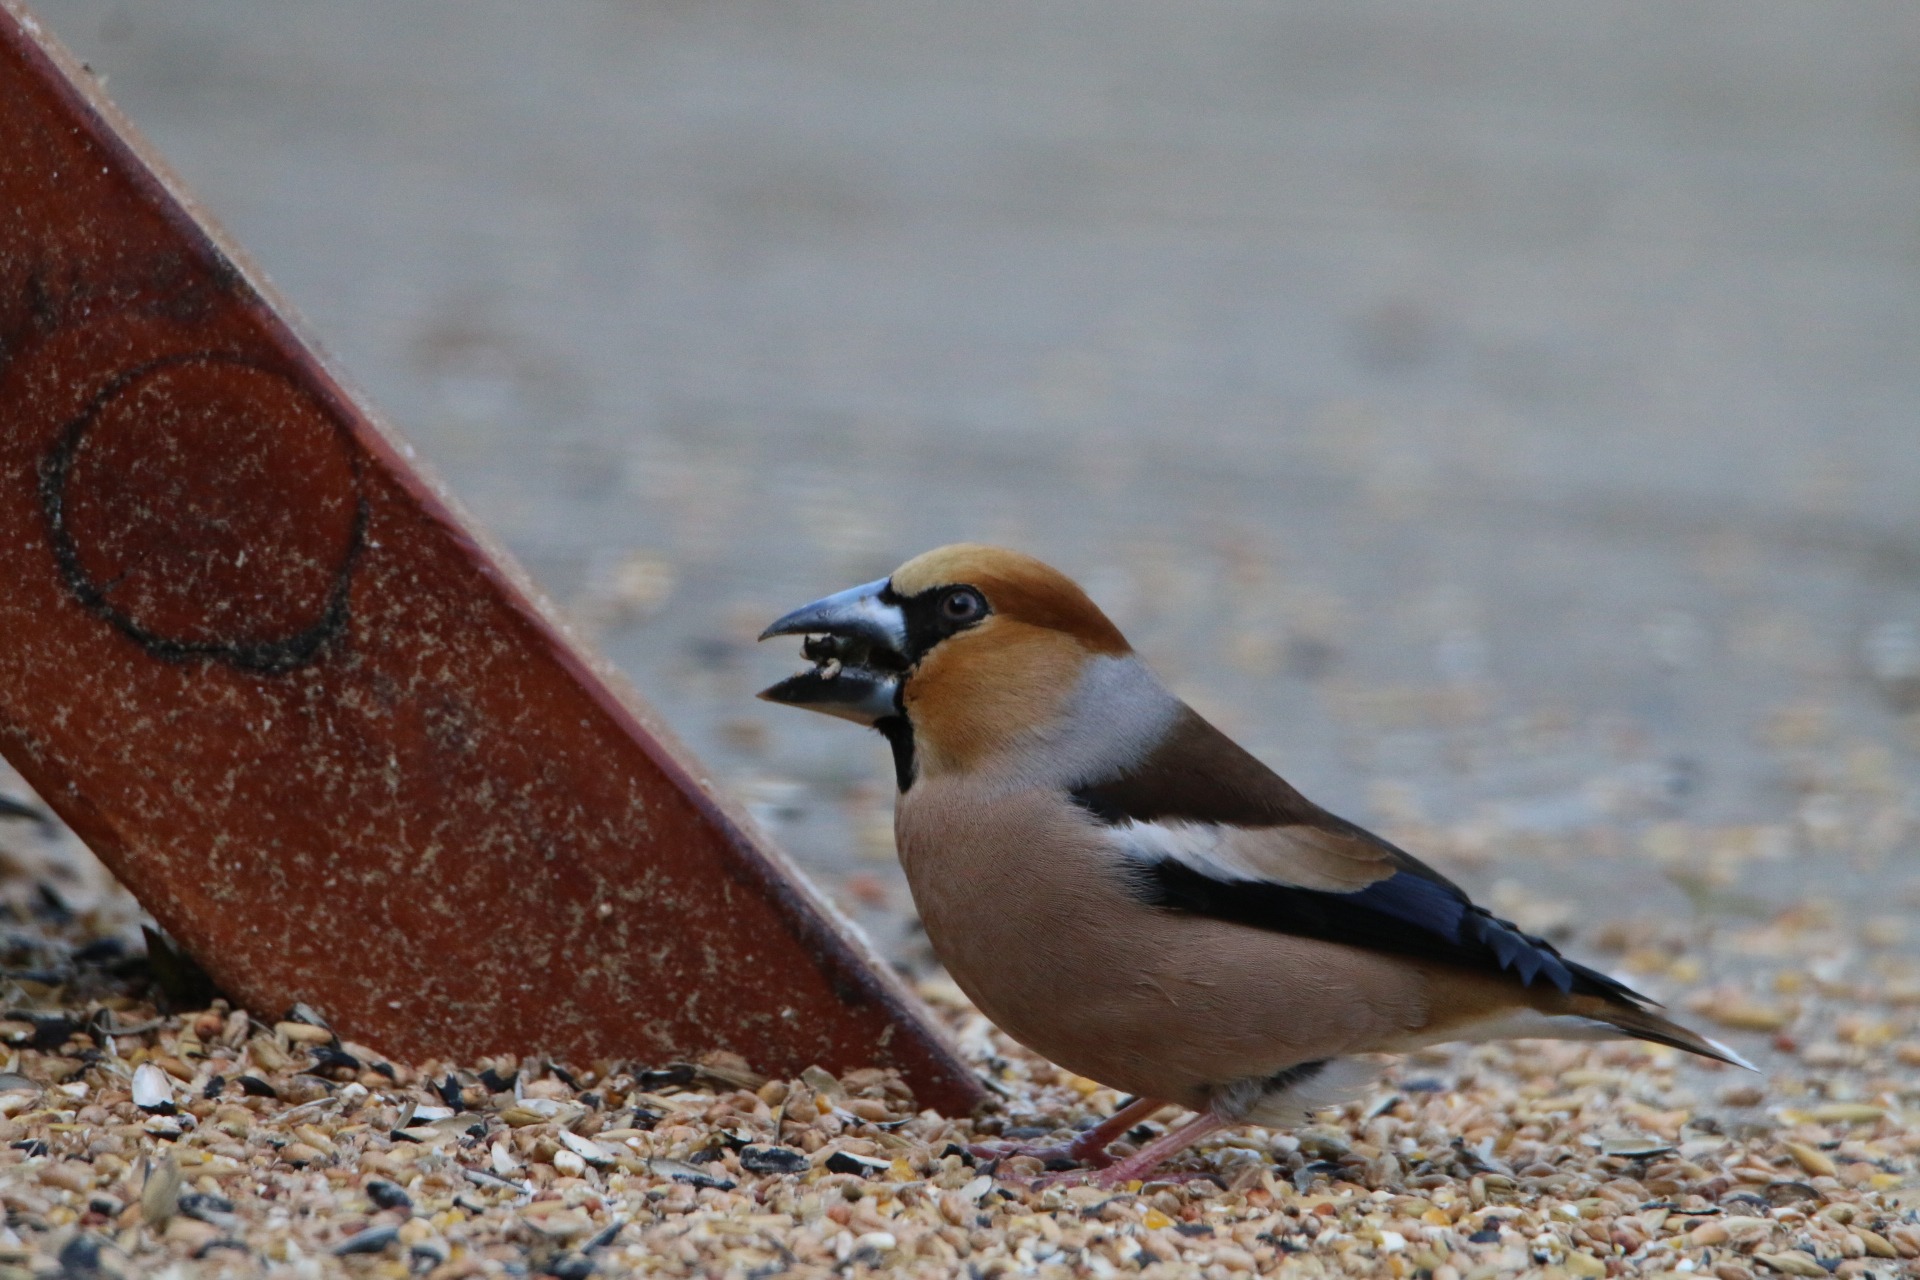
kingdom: Animalia
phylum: Chordata
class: Aves
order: Passeriformes
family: Fringillidae
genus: Coccothraustes
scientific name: Coccothraustes coccothraustes
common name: Kernebider
